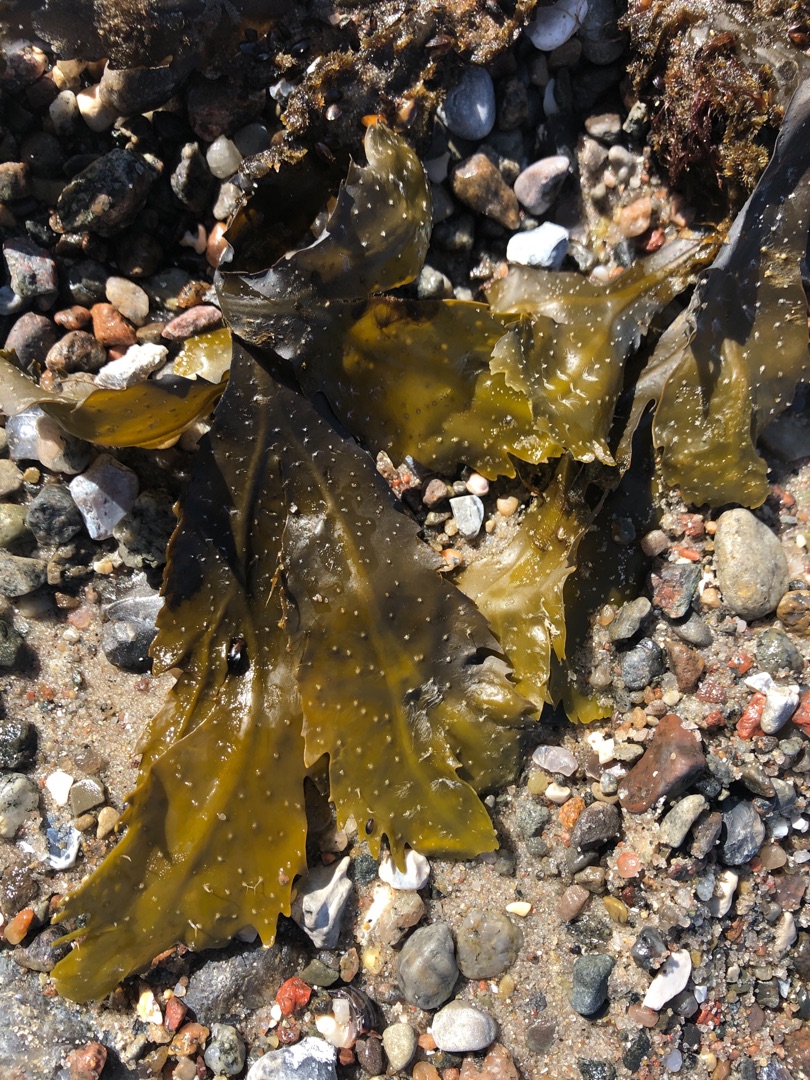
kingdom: Chromista
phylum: Ochrophyta
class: Phaeophyceae
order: Fucales
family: Fucaceae
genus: Fucus
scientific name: Fucus serratus
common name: Savtang
